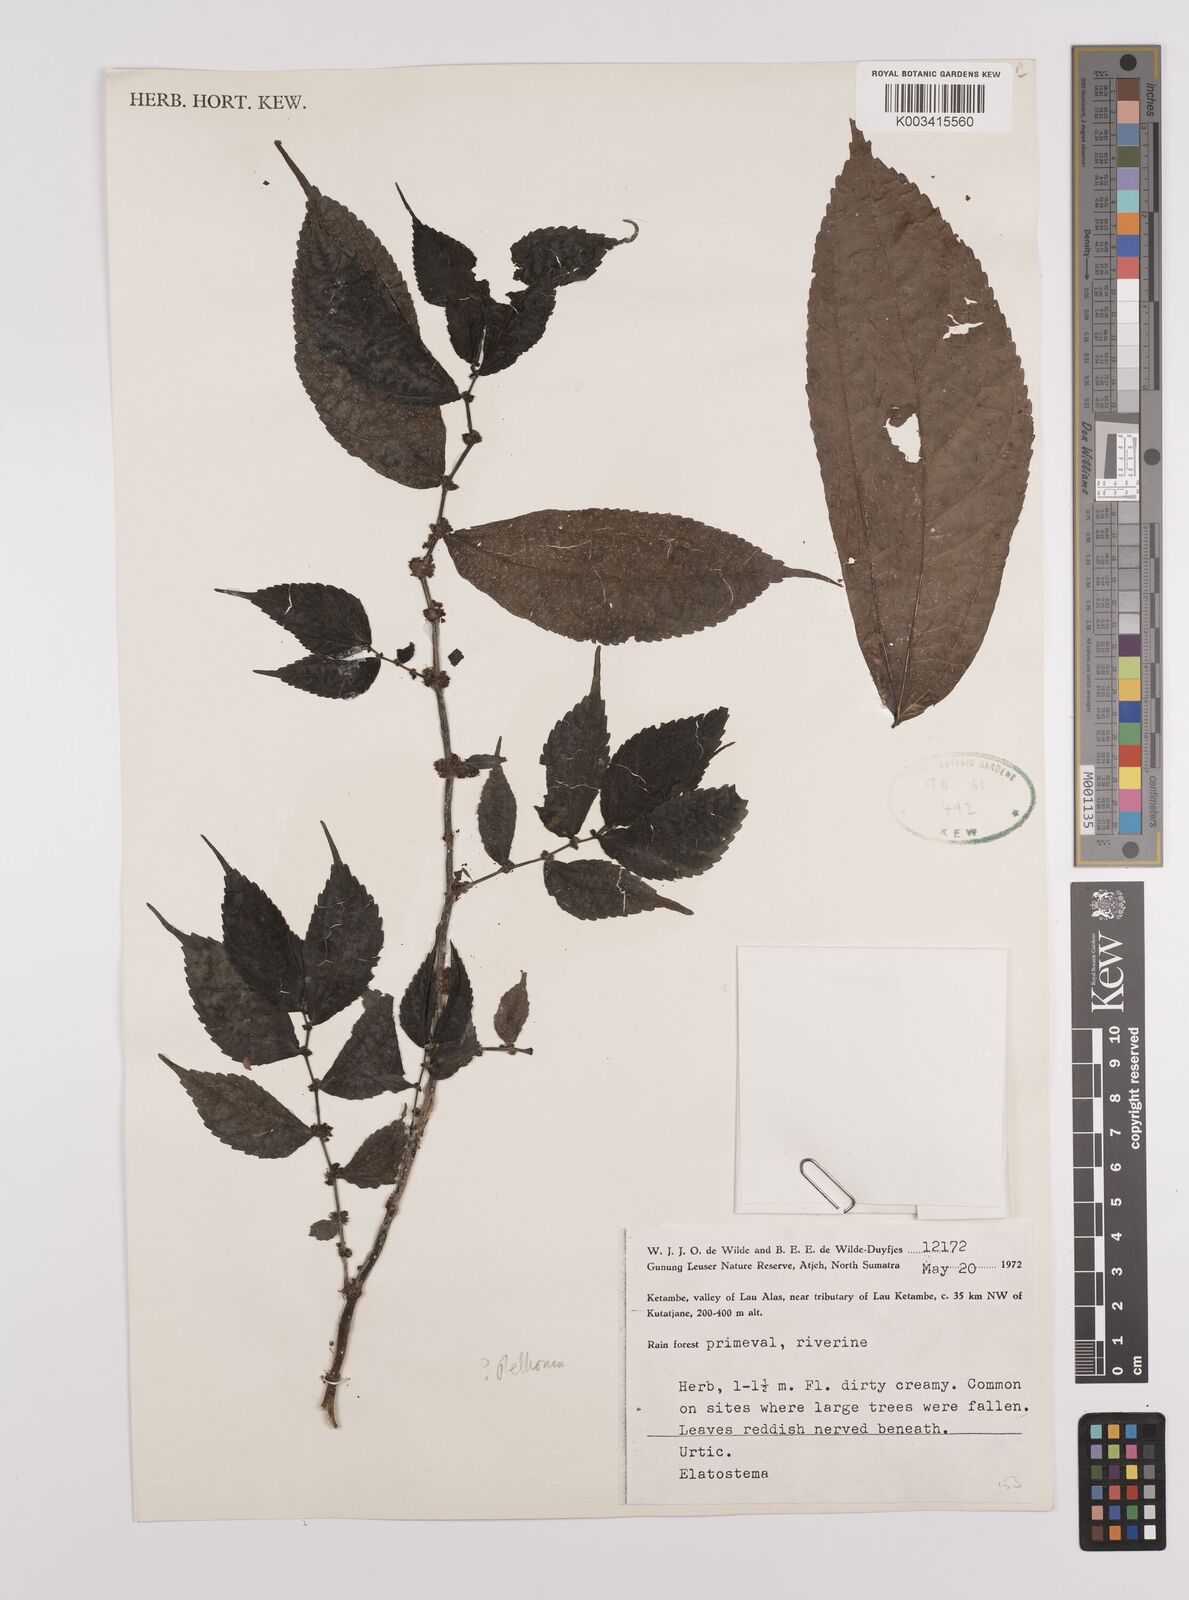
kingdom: Plantae
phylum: Tracheophyta
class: Magnoliopsida
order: Rosales
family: Urticaceae
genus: Elatostema
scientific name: Elatostema
